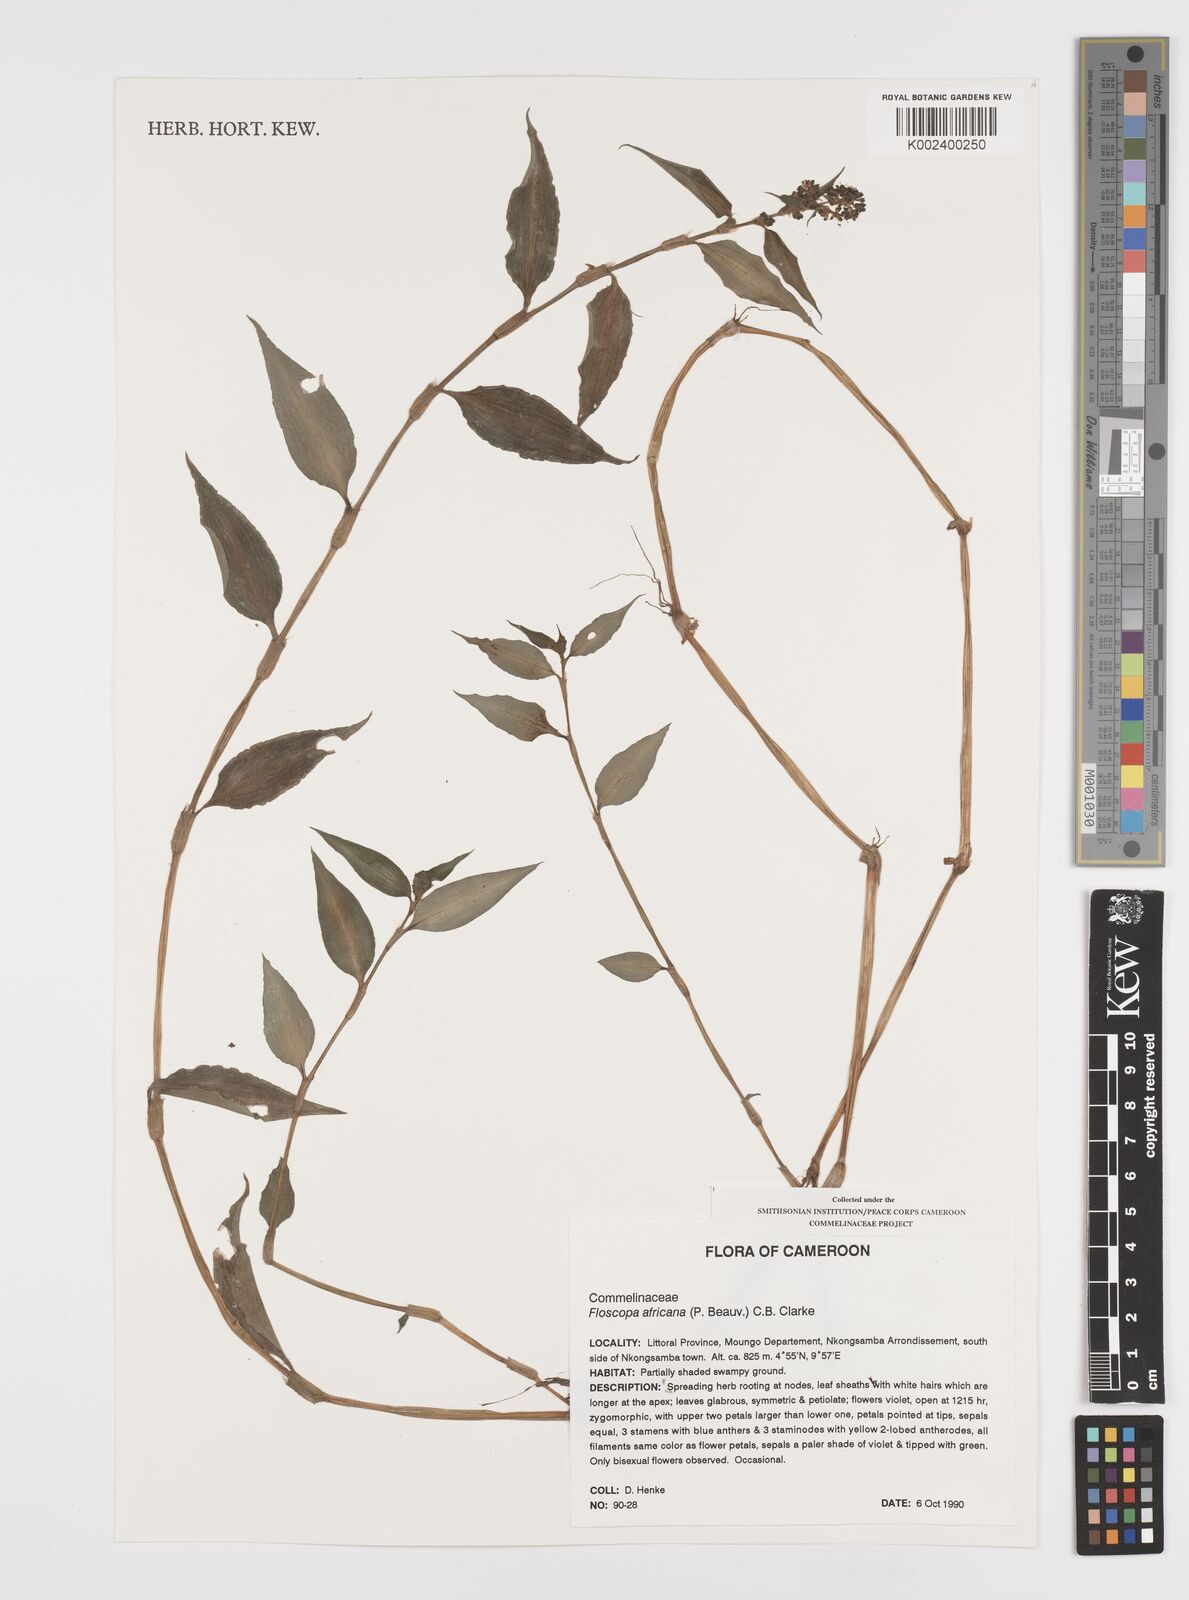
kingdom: Plantae
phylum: Tracheophyta
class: Liliopsida
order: Commelinales
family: Commelinaceae
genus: Floscopa
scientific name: Floscopa africana
